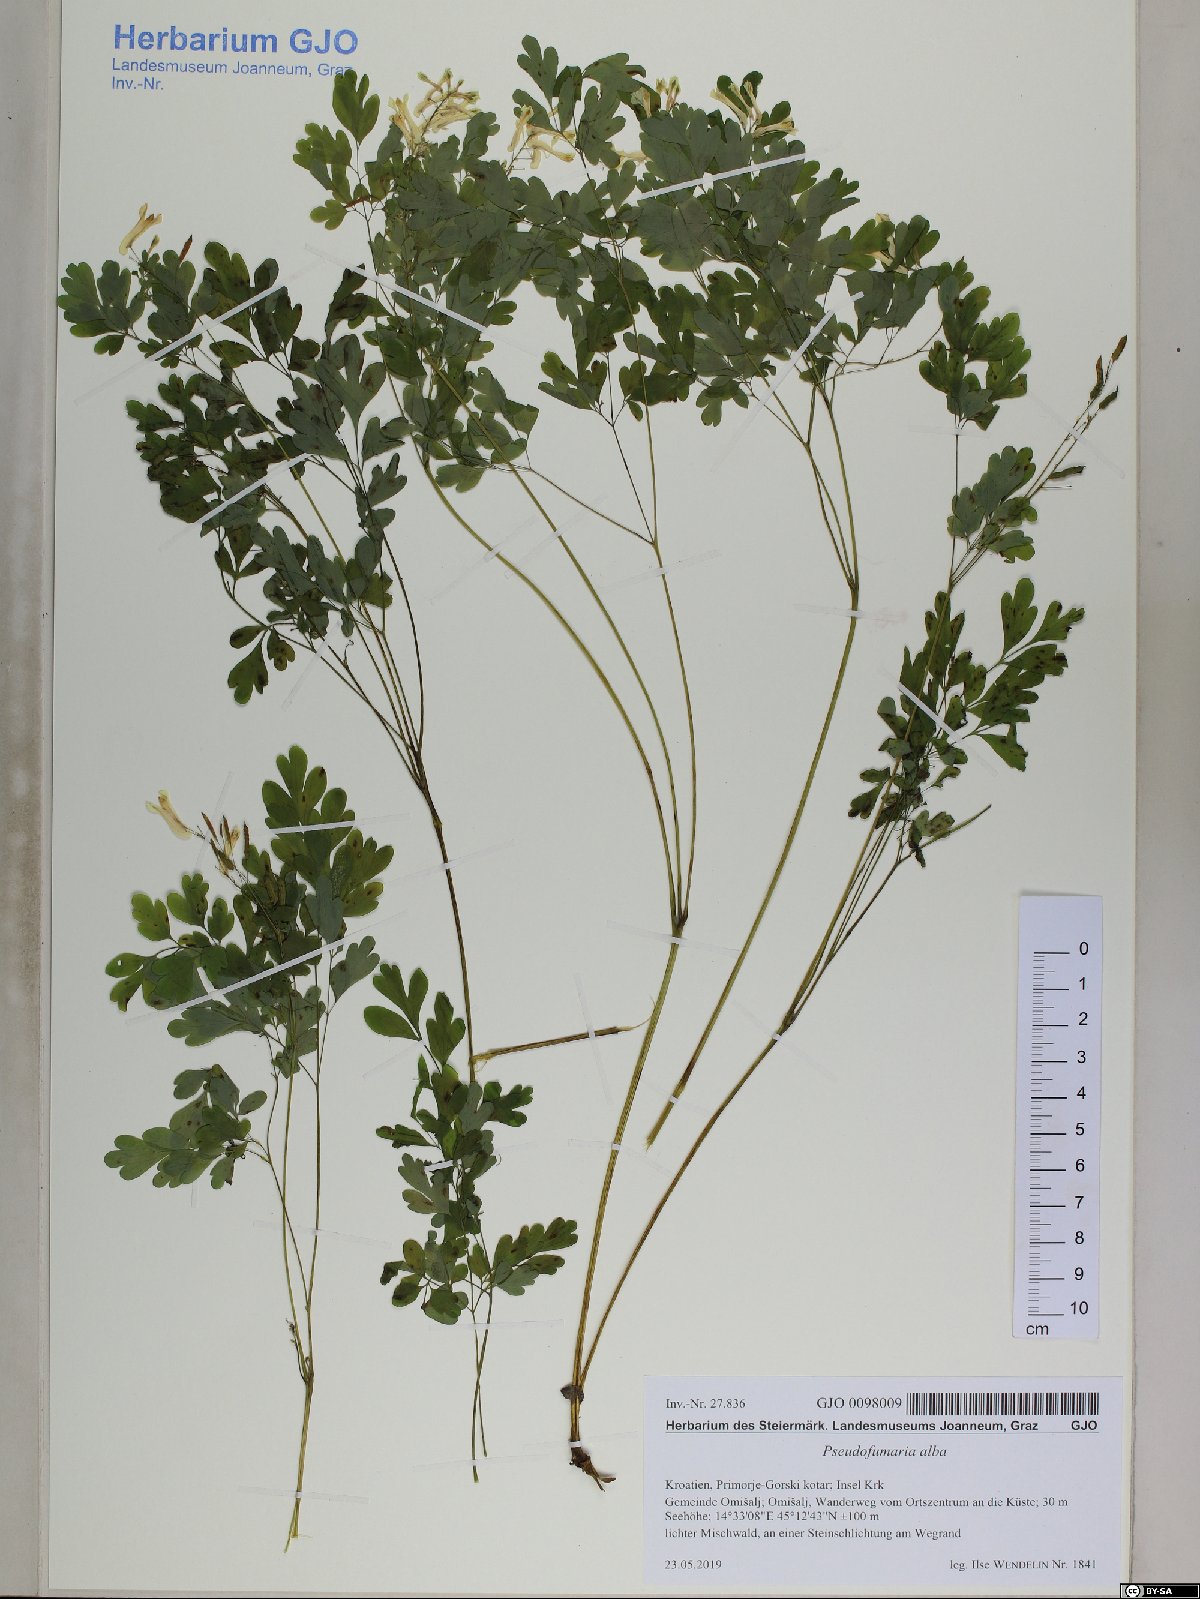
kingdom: Plantae
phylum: Tracheophyta
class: Magnoliopsida
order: Ranunculales
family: Papaveraceae
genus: Pseudofumaria
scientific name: Pseudofumaria alba
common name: Pale corydalis
